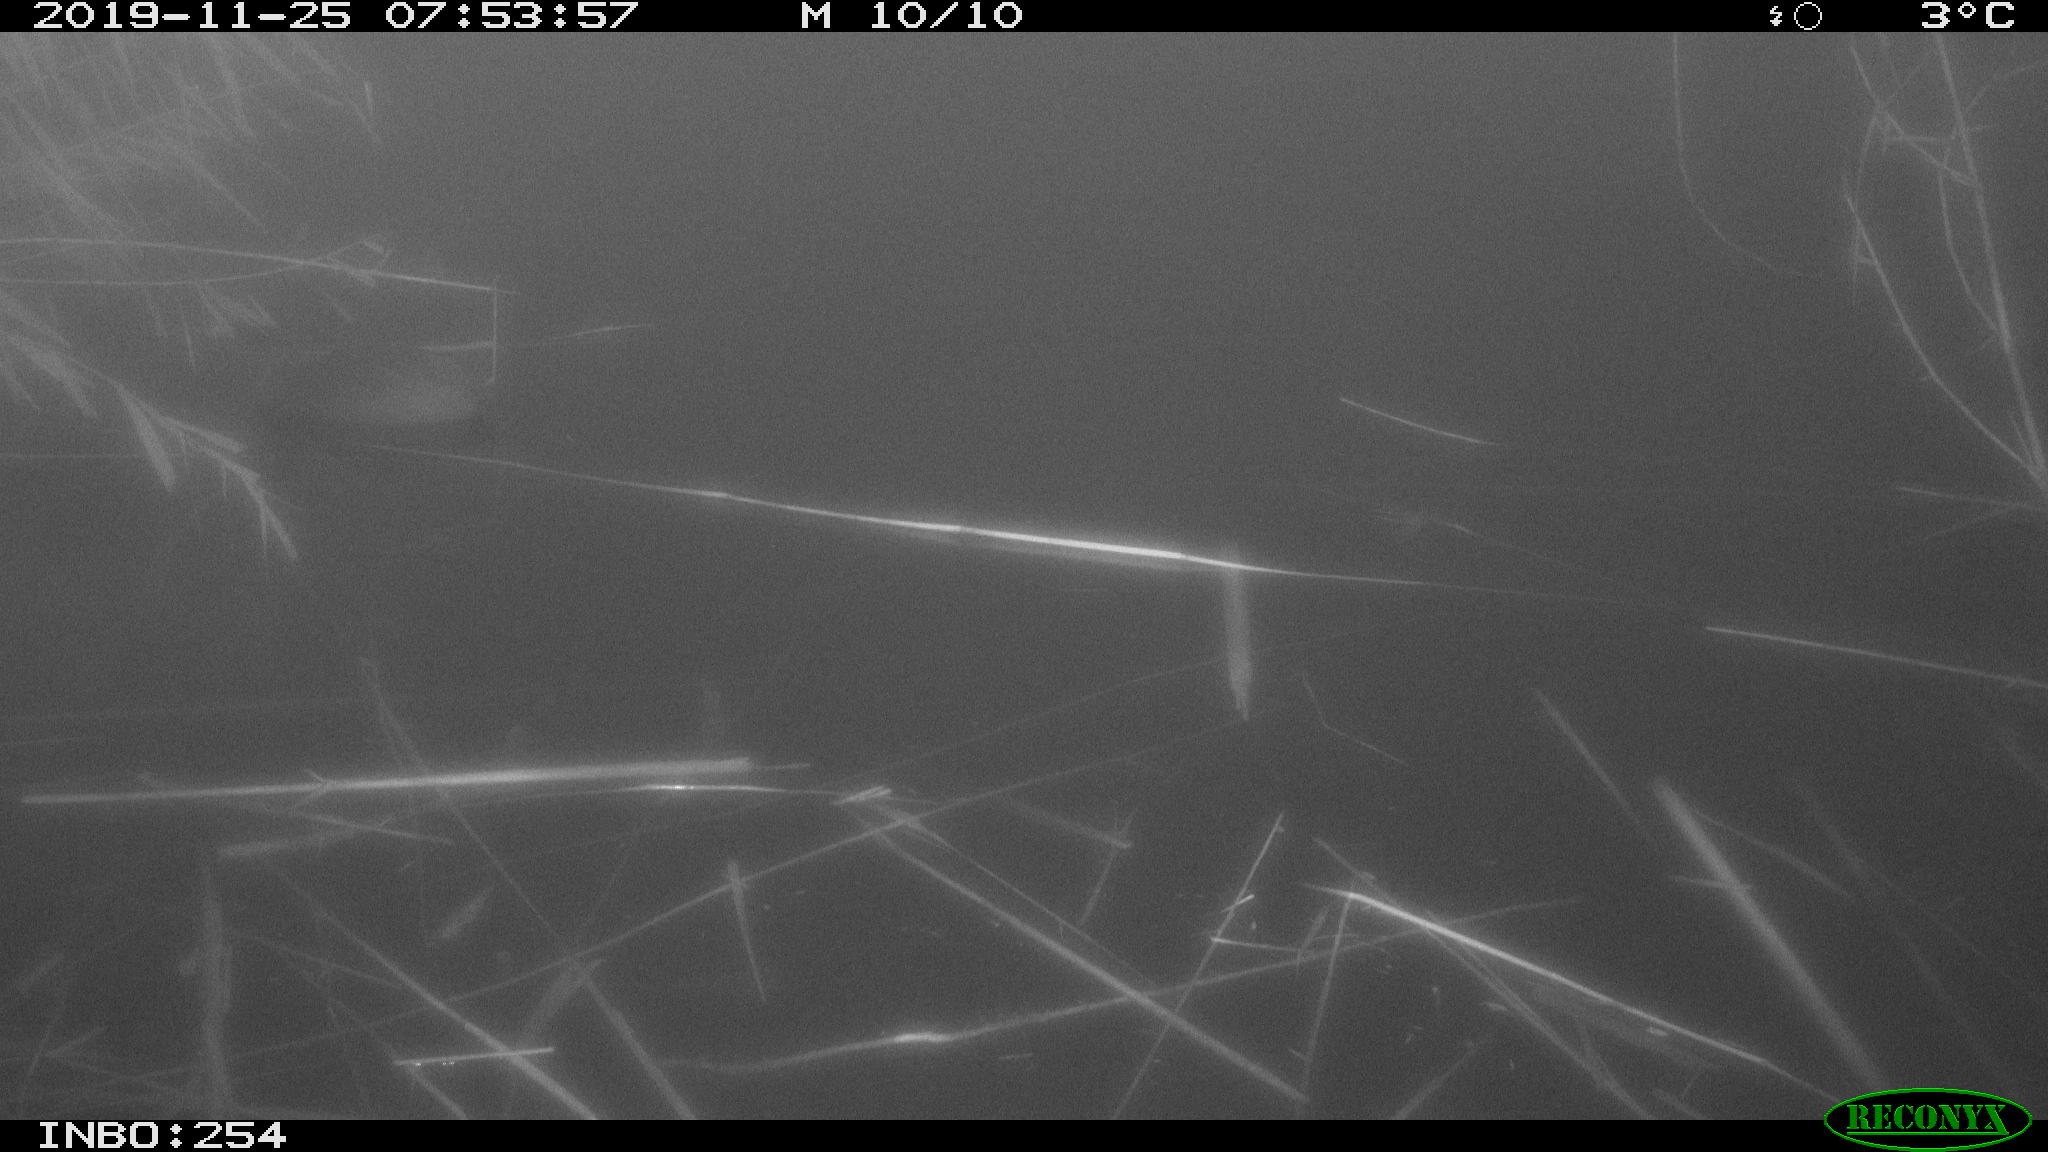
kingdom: Animalia
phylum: Chordata
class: Aves
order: Gruiformes
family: Rallidae
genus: Fulica
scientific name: Fulica atra
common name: Eurasian coot
